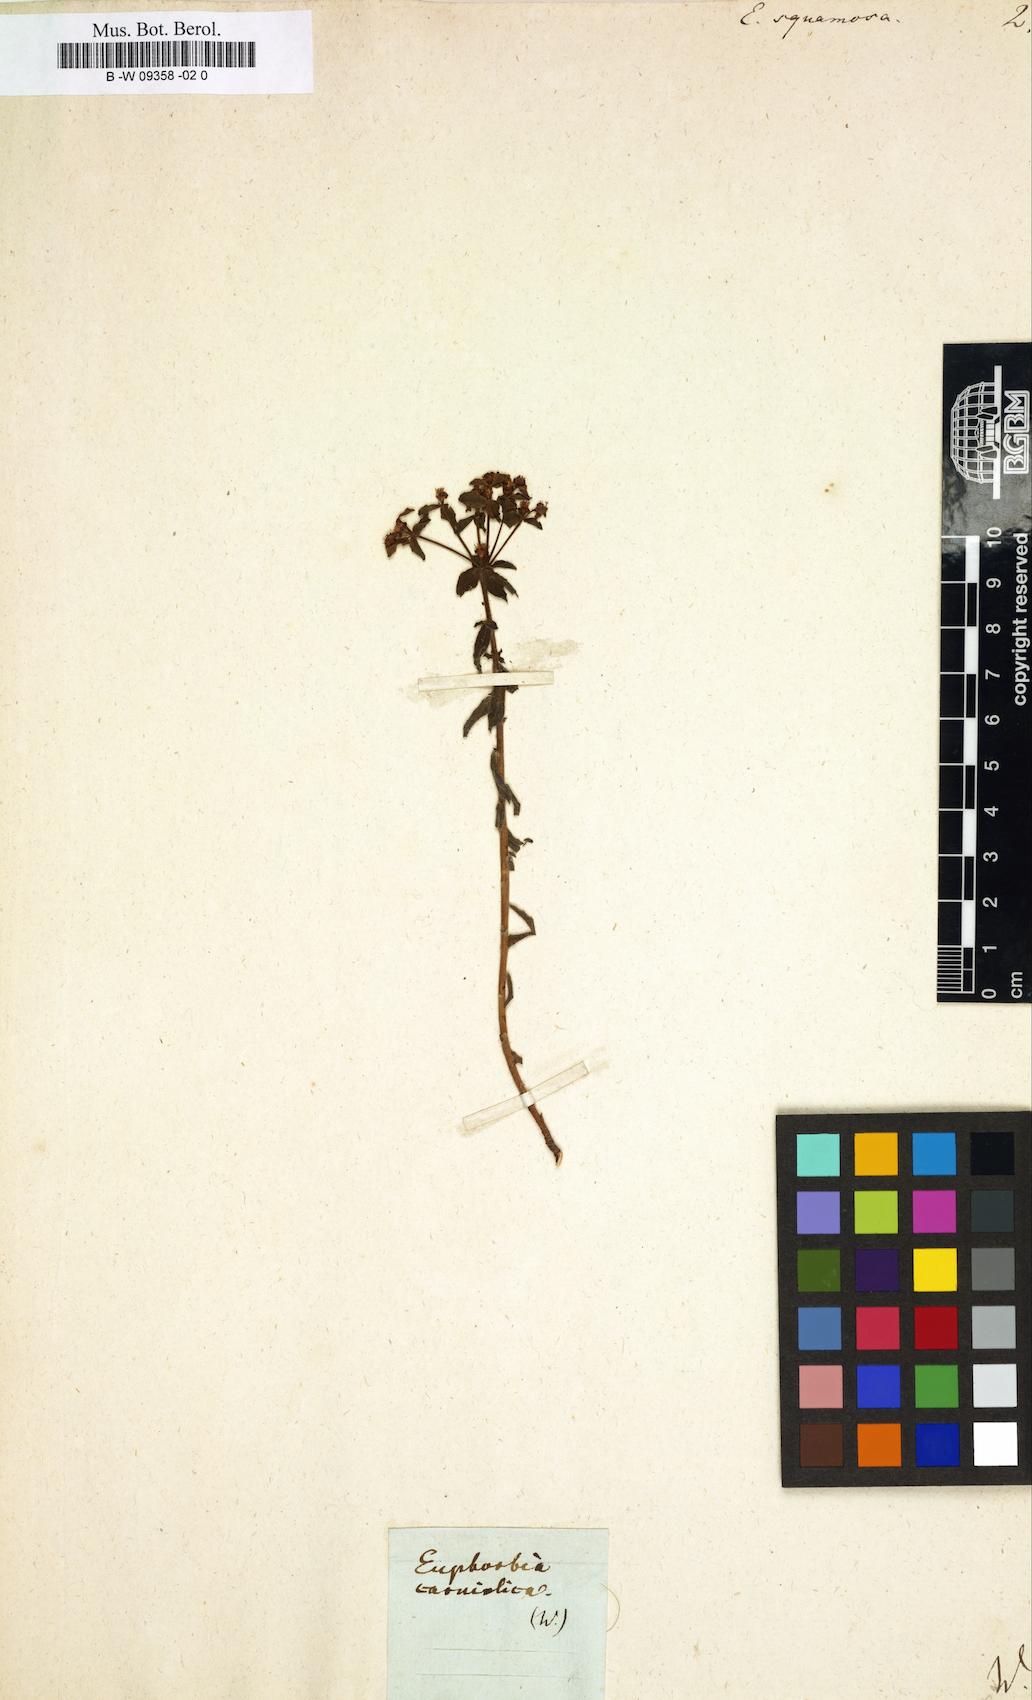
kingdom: Plantae
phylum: Tracheophyta
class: Magnoliopsida
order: Malpighiales
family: Euphorbiaceae
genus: Euphorbia
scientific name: Euphorbia squamosa
